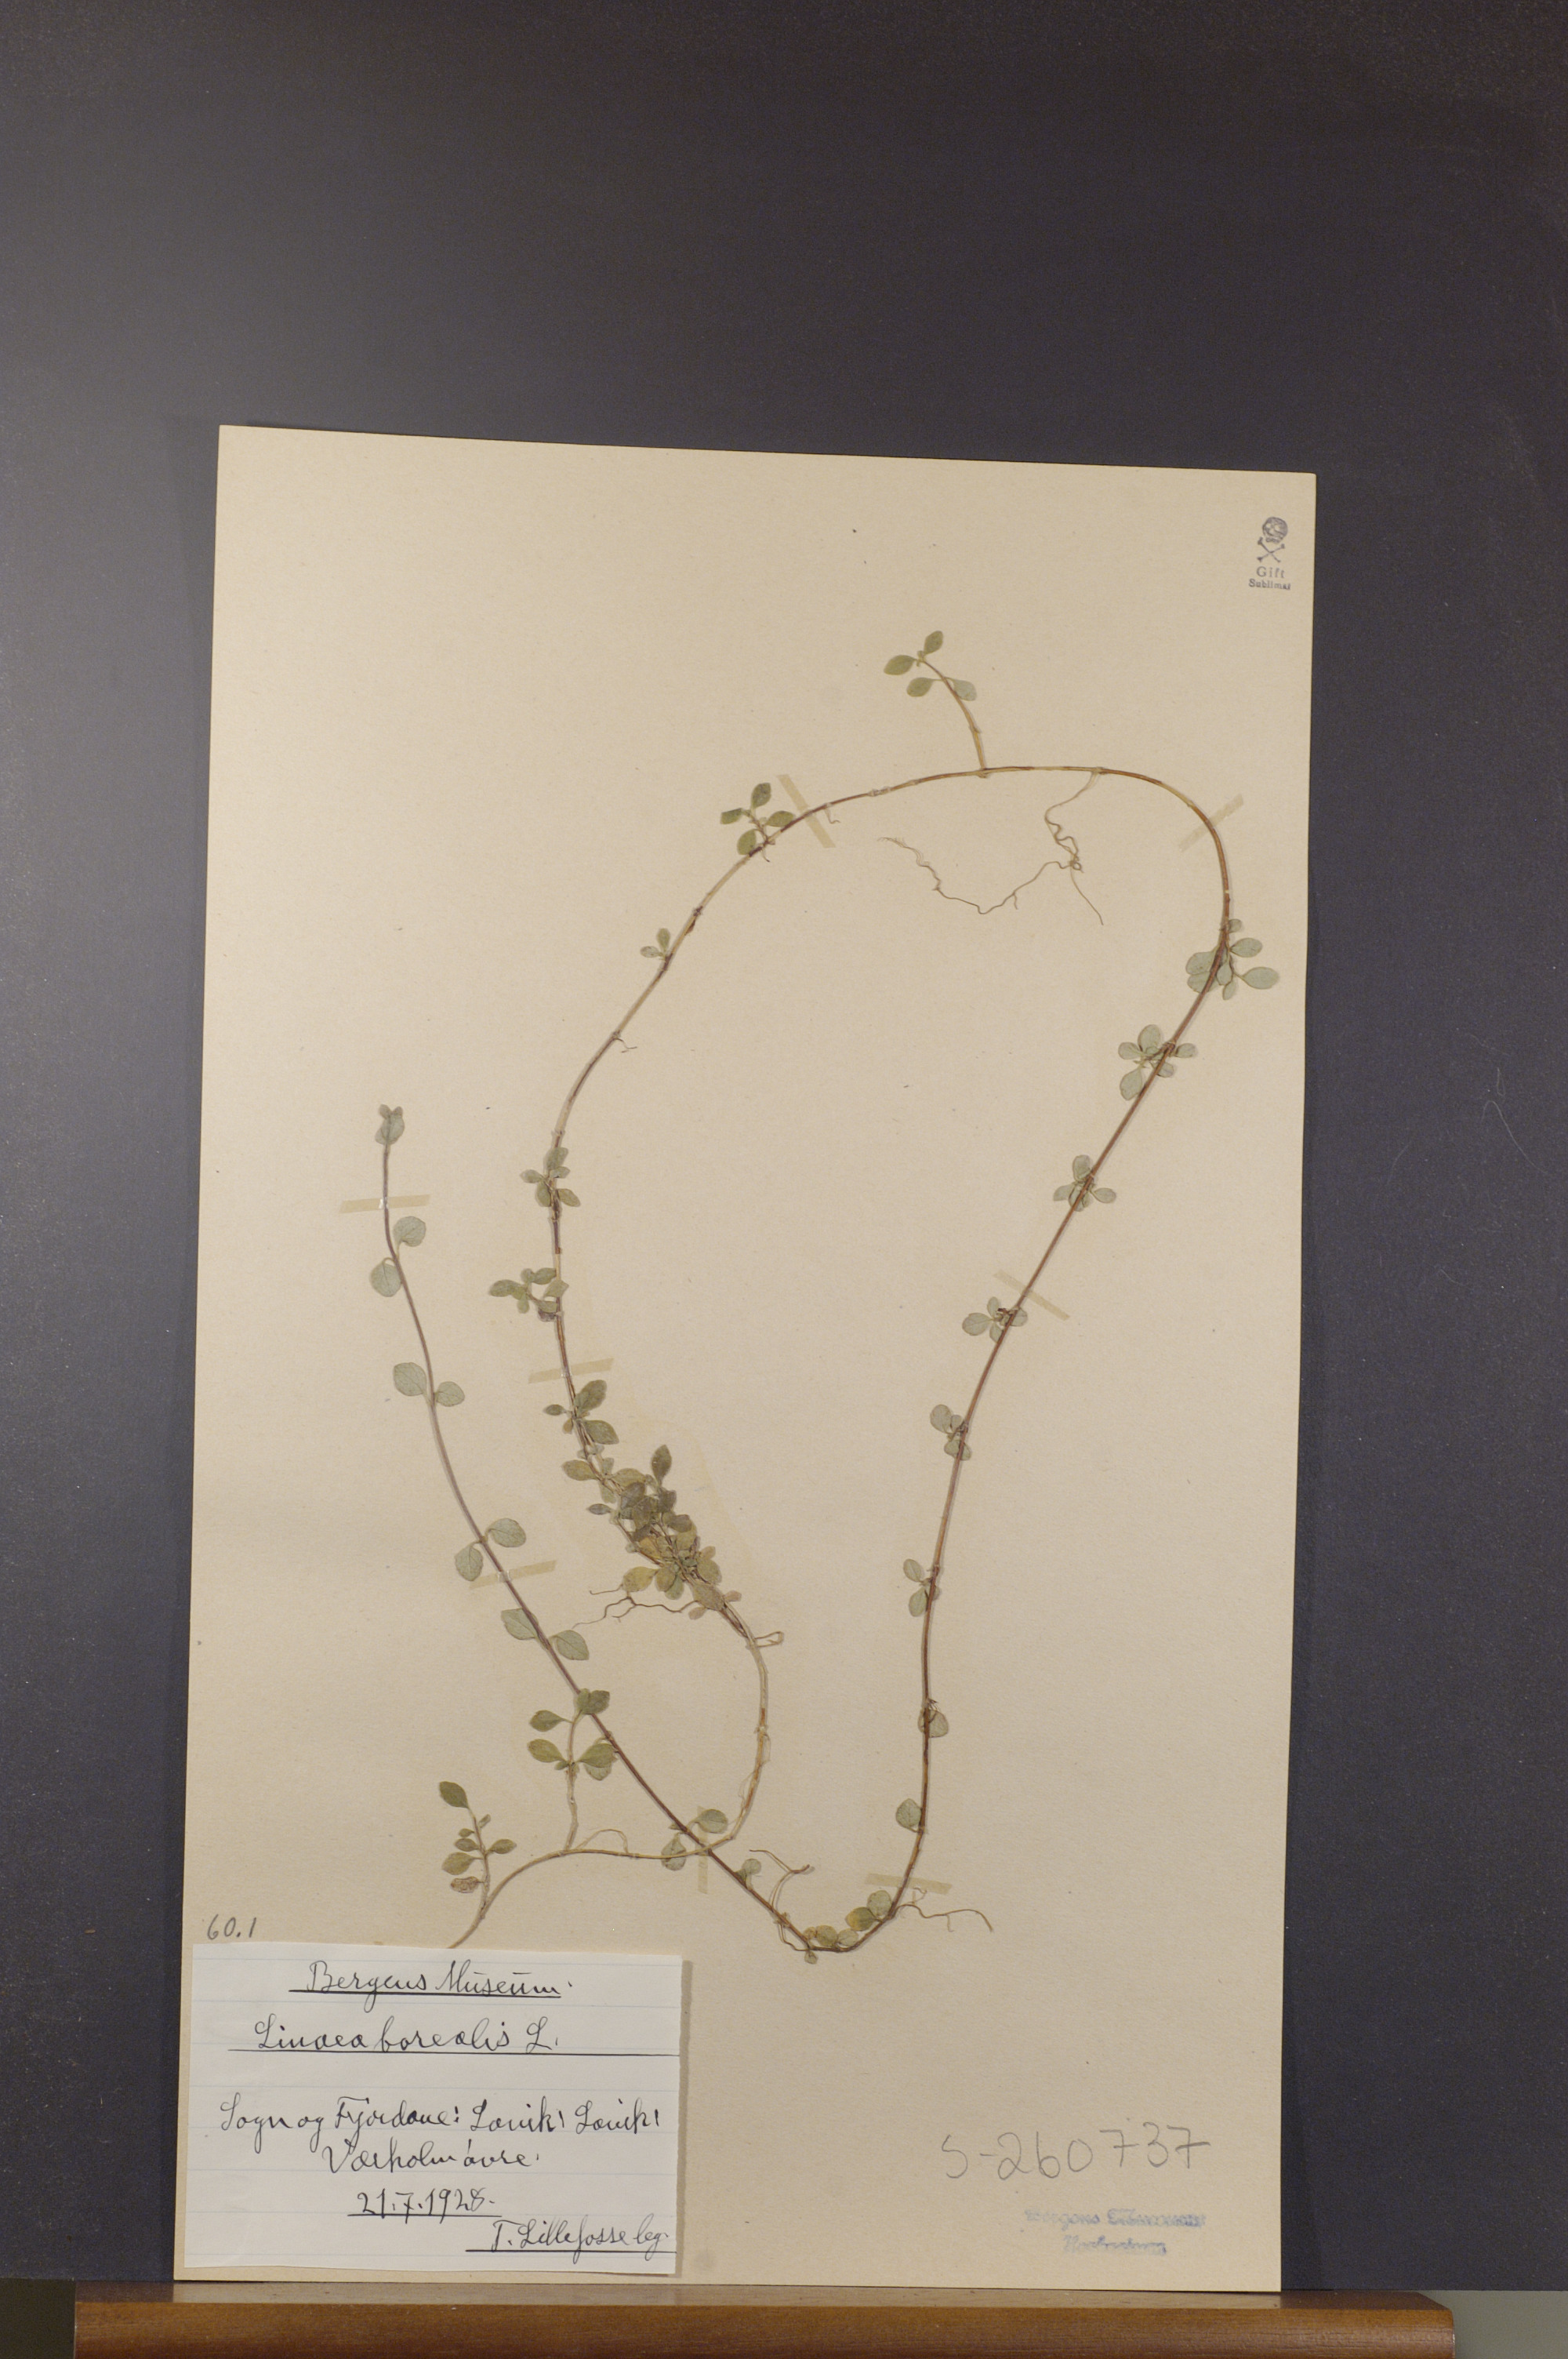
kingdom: Plantae
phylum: Tracheophyta
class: Magnoliopsida
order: Dipsacales
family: Caprifoliaceae
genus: Linnaea
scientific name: Linnaea borealis
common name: Twinflower
